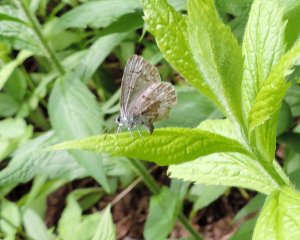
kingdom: Animalia
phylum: Arthropoda
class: Insecta
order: Lepidoptera
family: Lycaenidae
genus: Celastrina
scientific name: Celastrina lucia
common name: Northern Spring Azure
